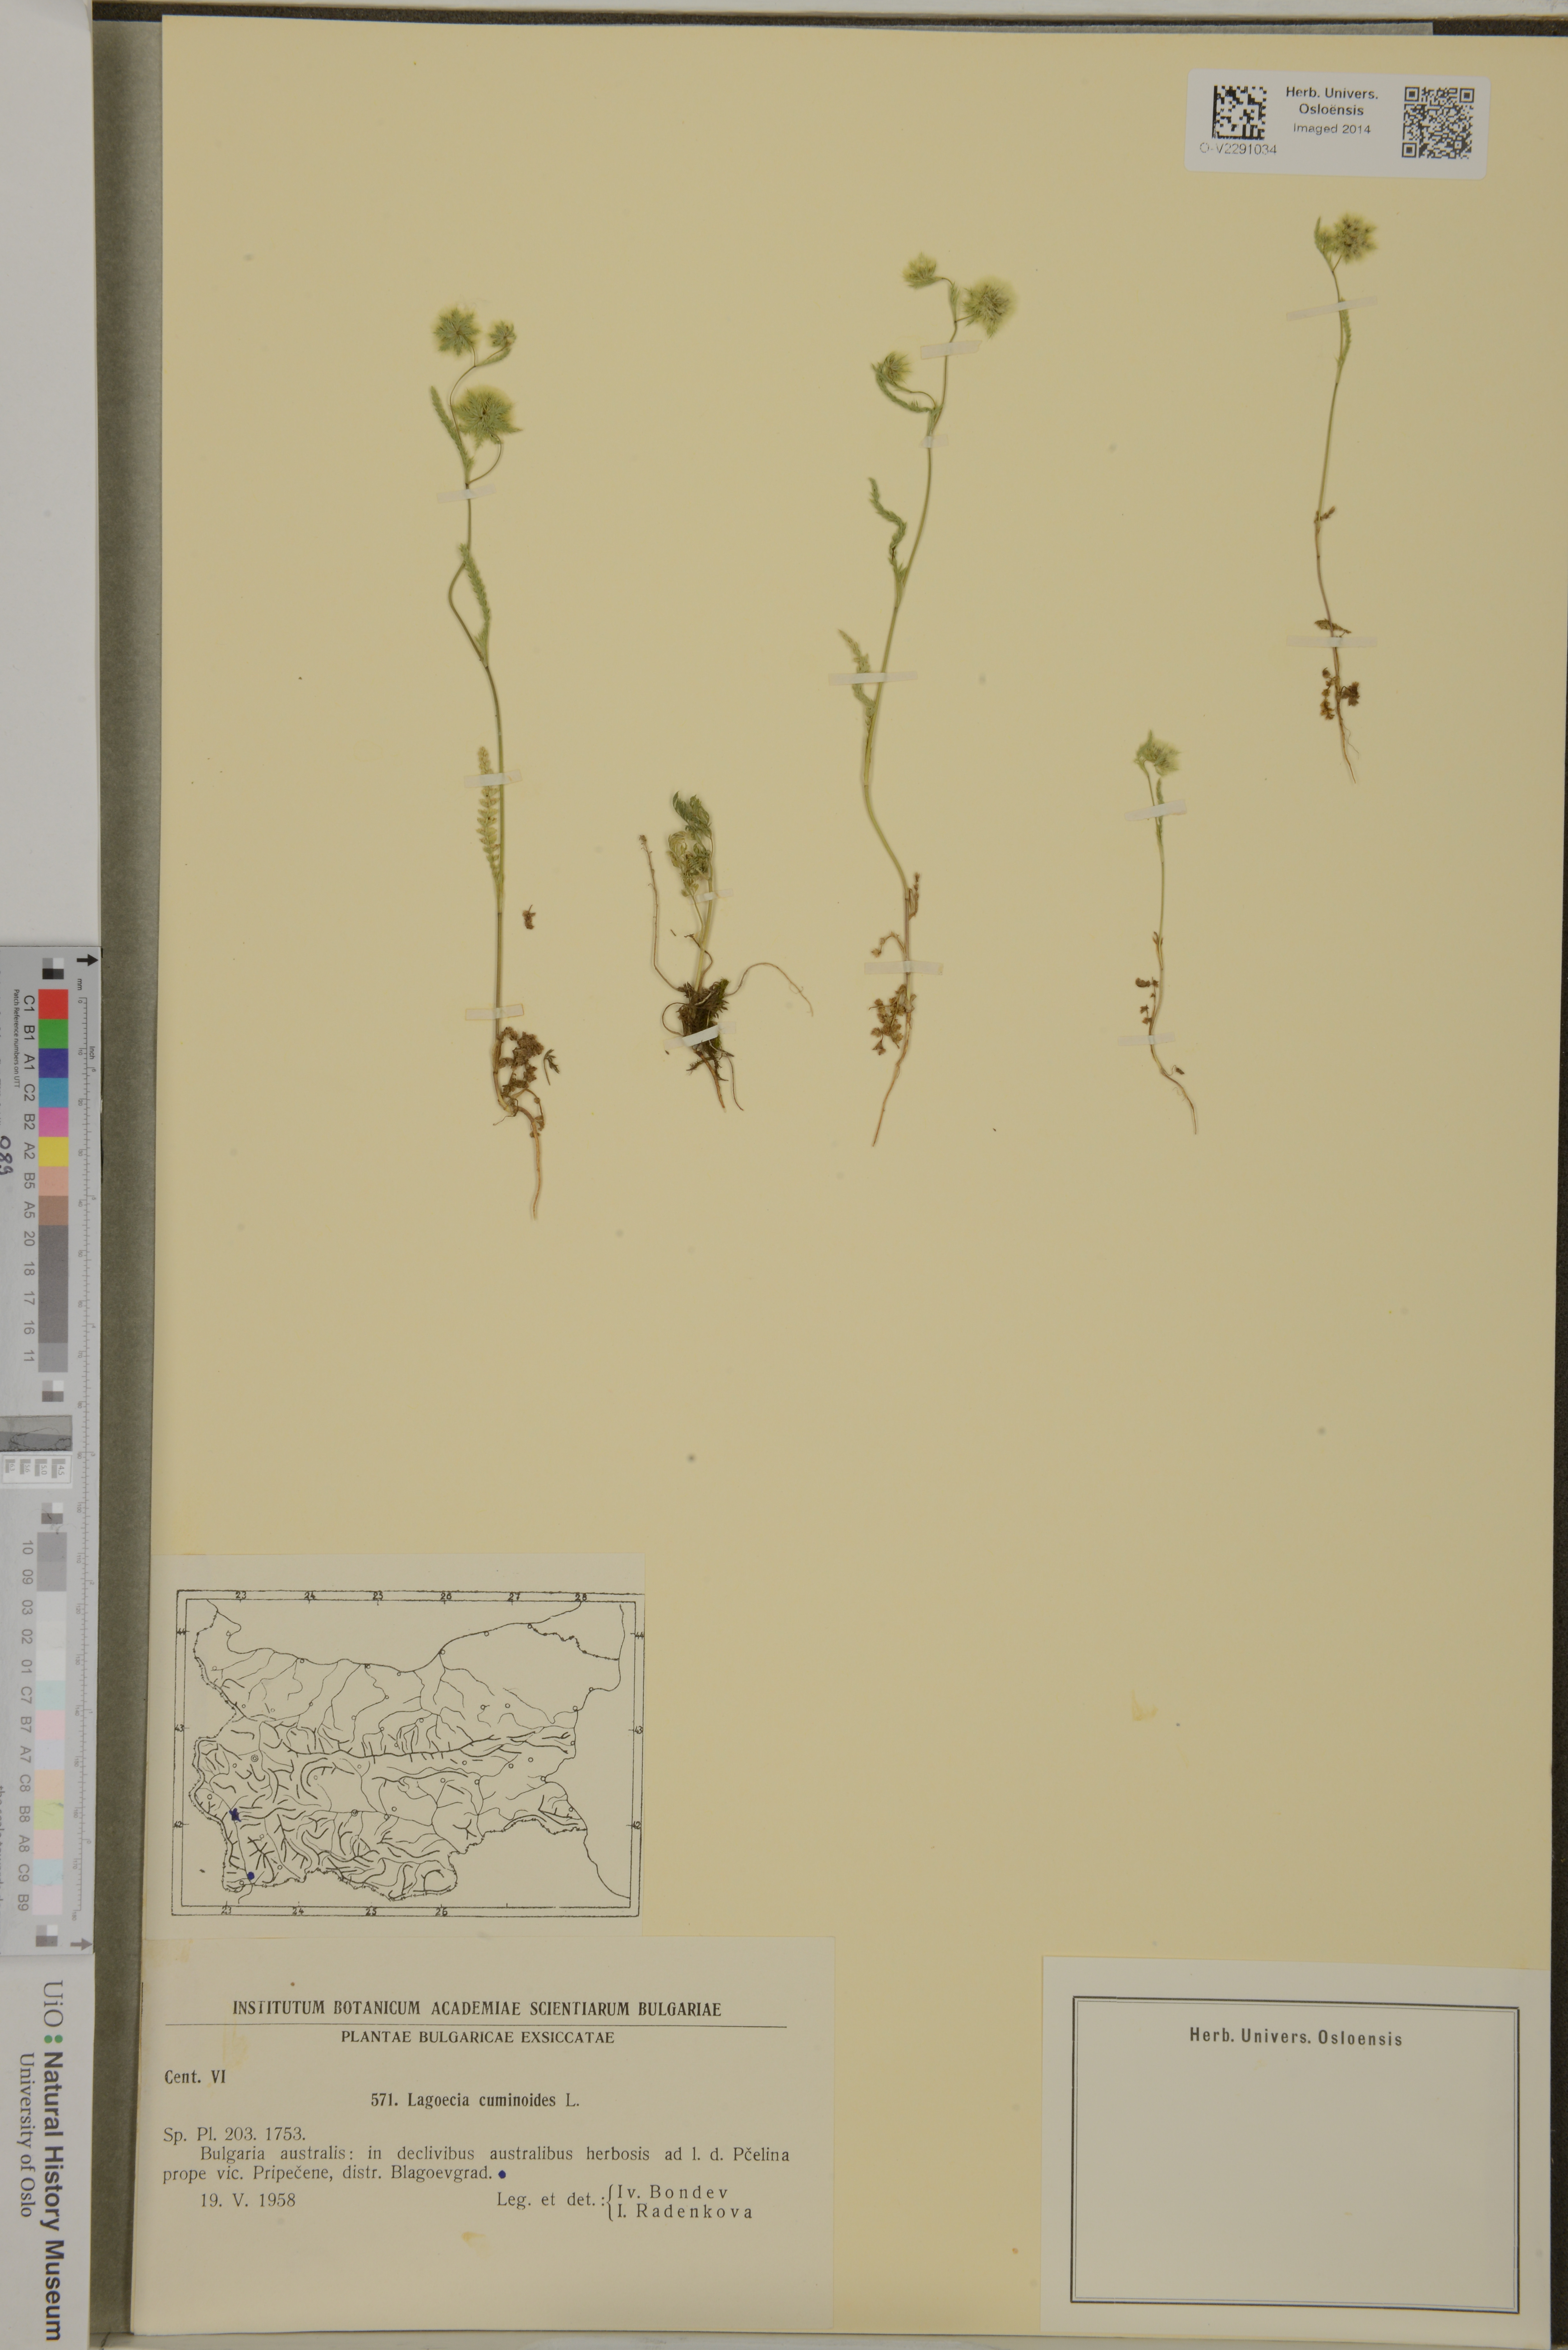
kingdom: Plantae
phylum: Tracheophyta
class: Magnoliopsida
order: Apiales
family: Apiaceae
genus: Lagoecia
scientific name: Lagoecia cuminoides
